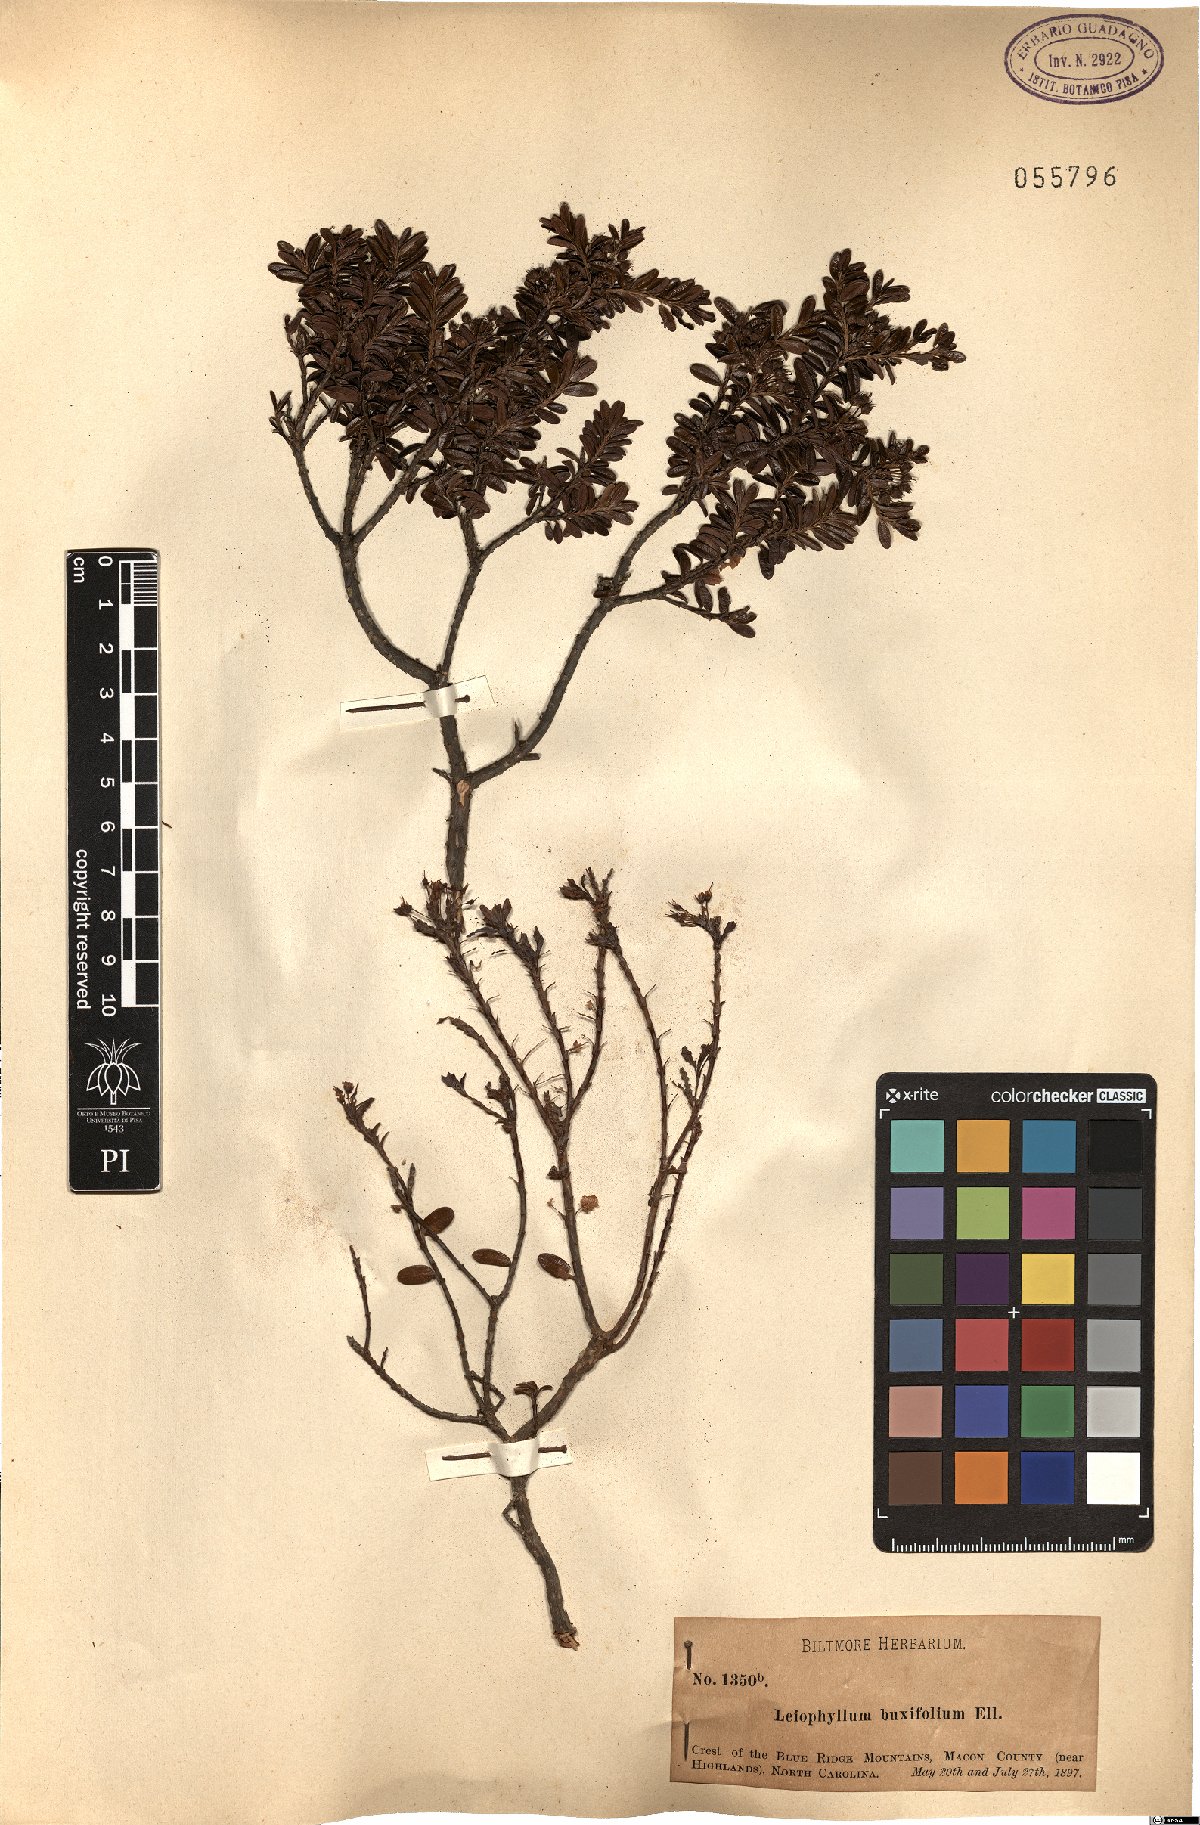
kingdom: Plantae
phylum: Tracheophyta
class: Magnoliopsida
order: Ericales
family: Ericaceae
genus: Kalmia
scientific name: Kalmia buxifolia
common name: Sandmyrtle
